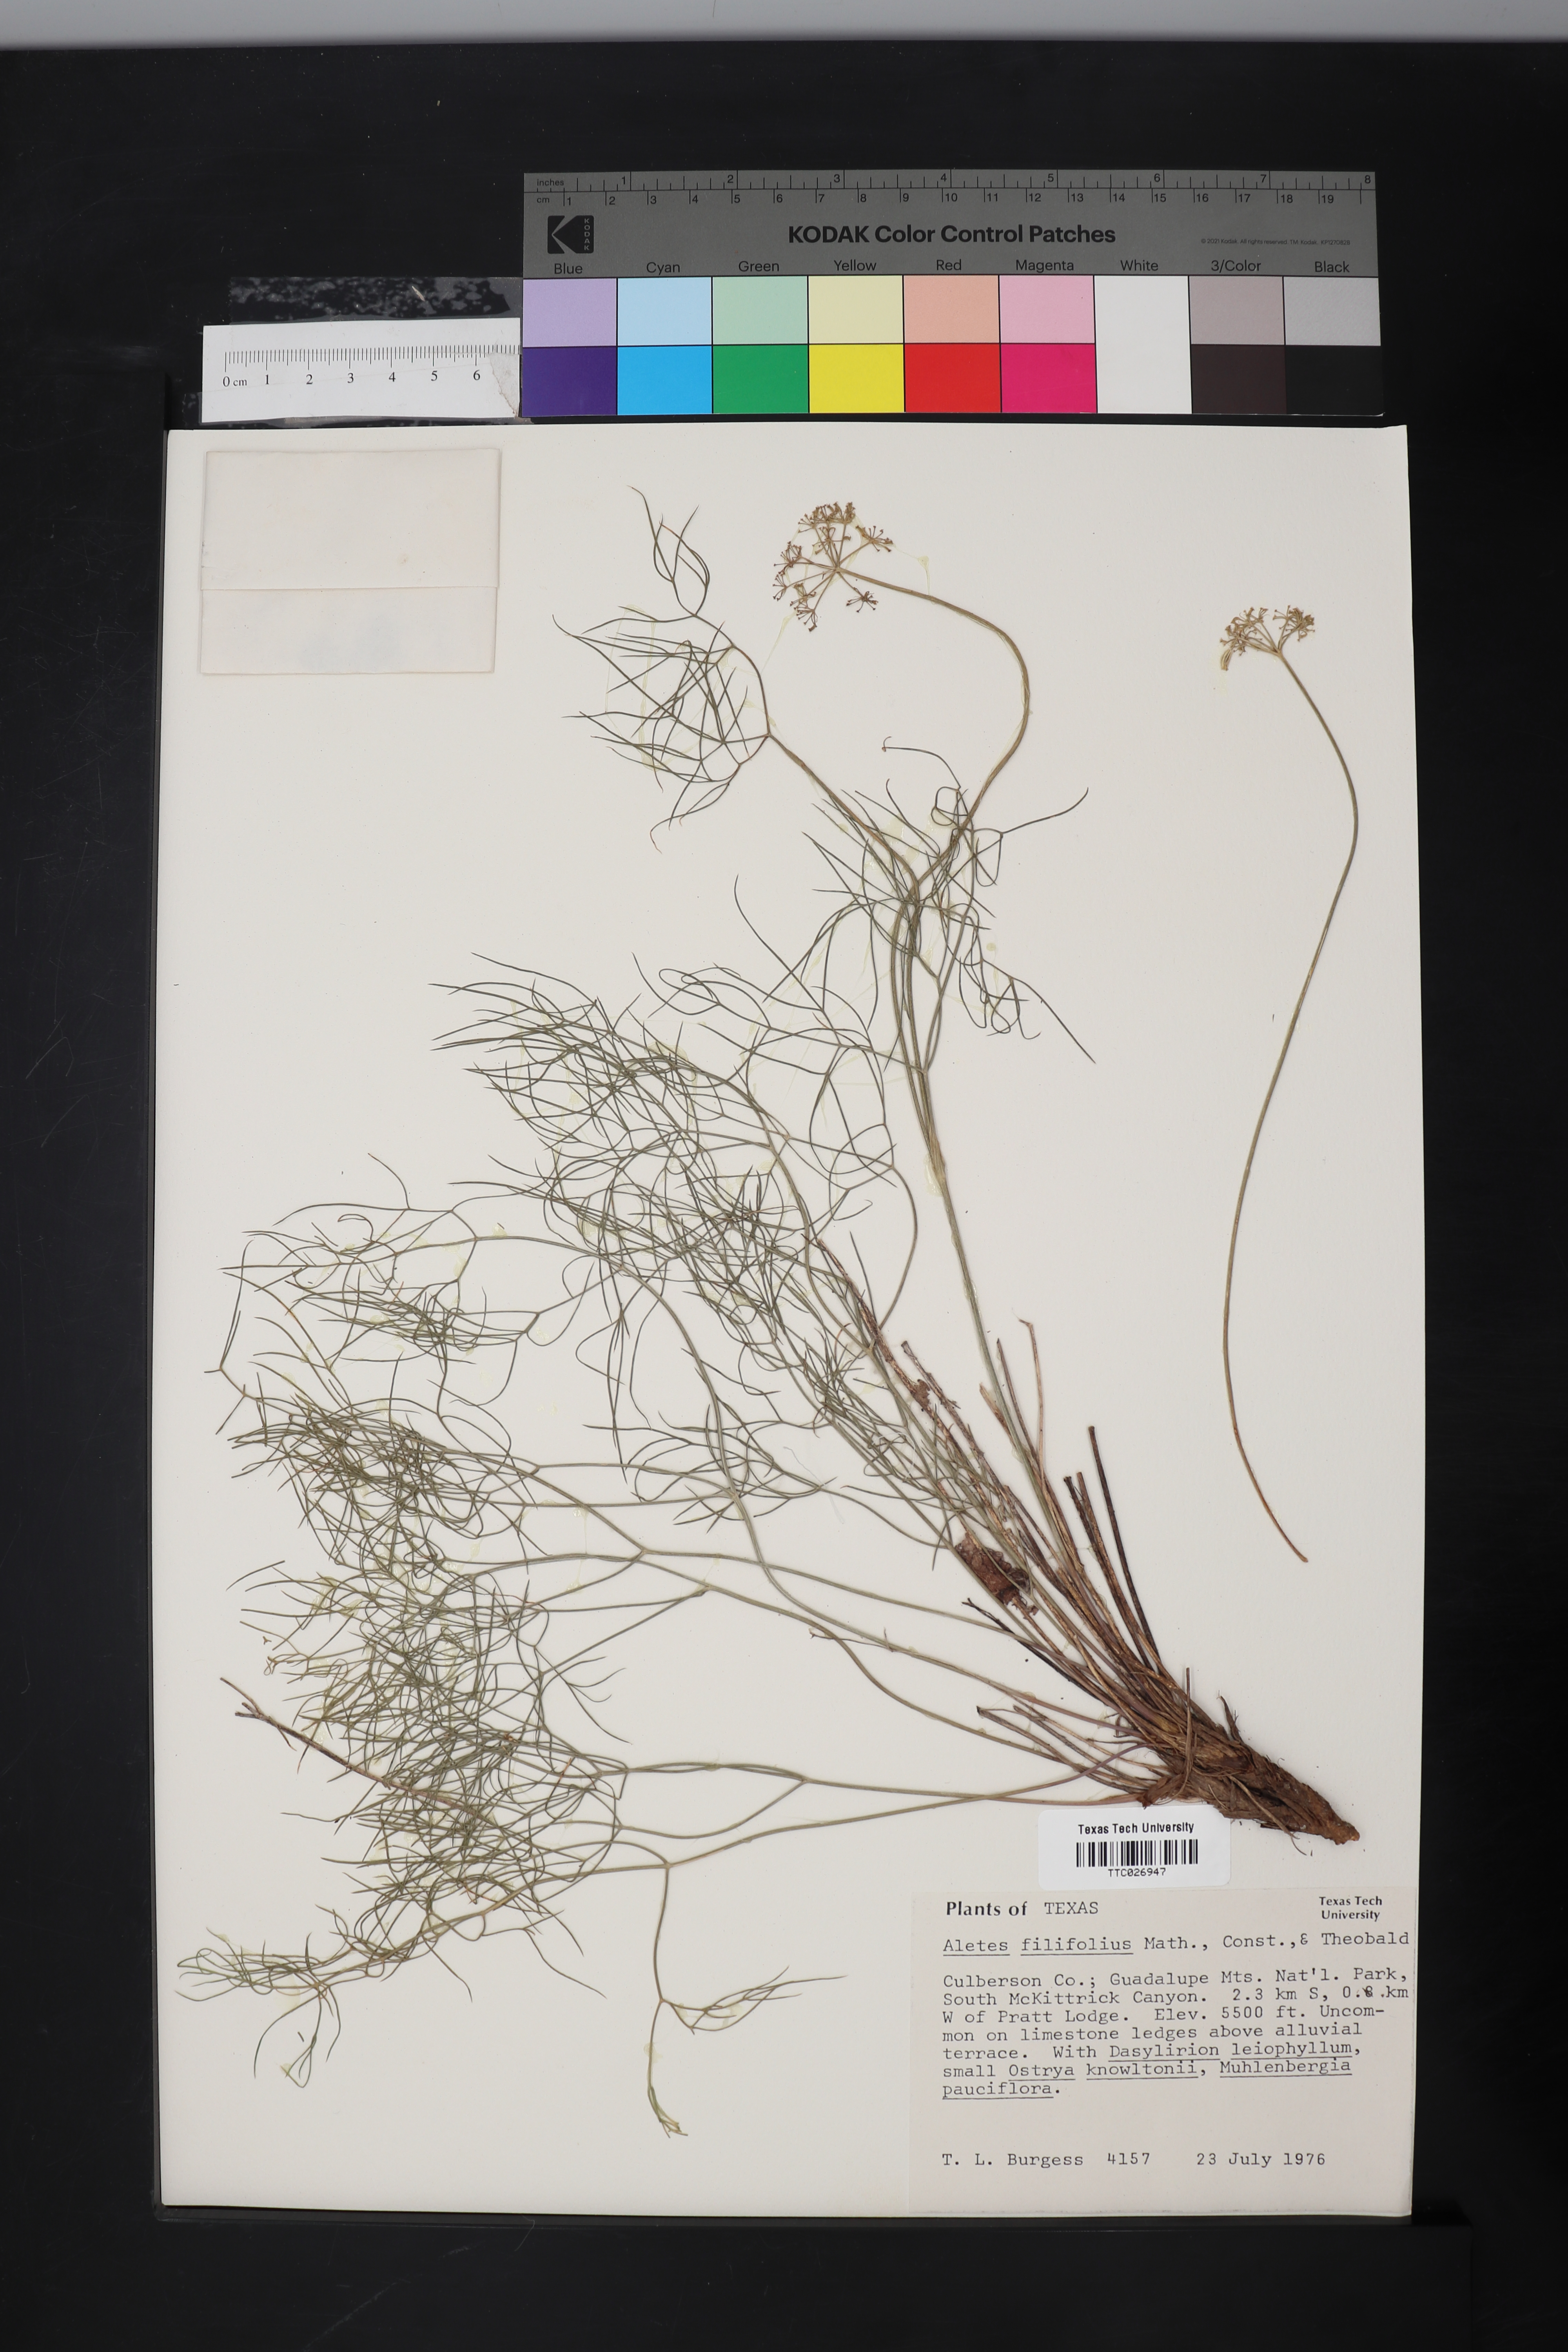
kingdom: Plantae
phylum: Tracheophyta
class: Magnoliopsida
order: Apiales
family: Apiaceae
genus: Cymopterus
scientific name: Cymopterus filifolius
